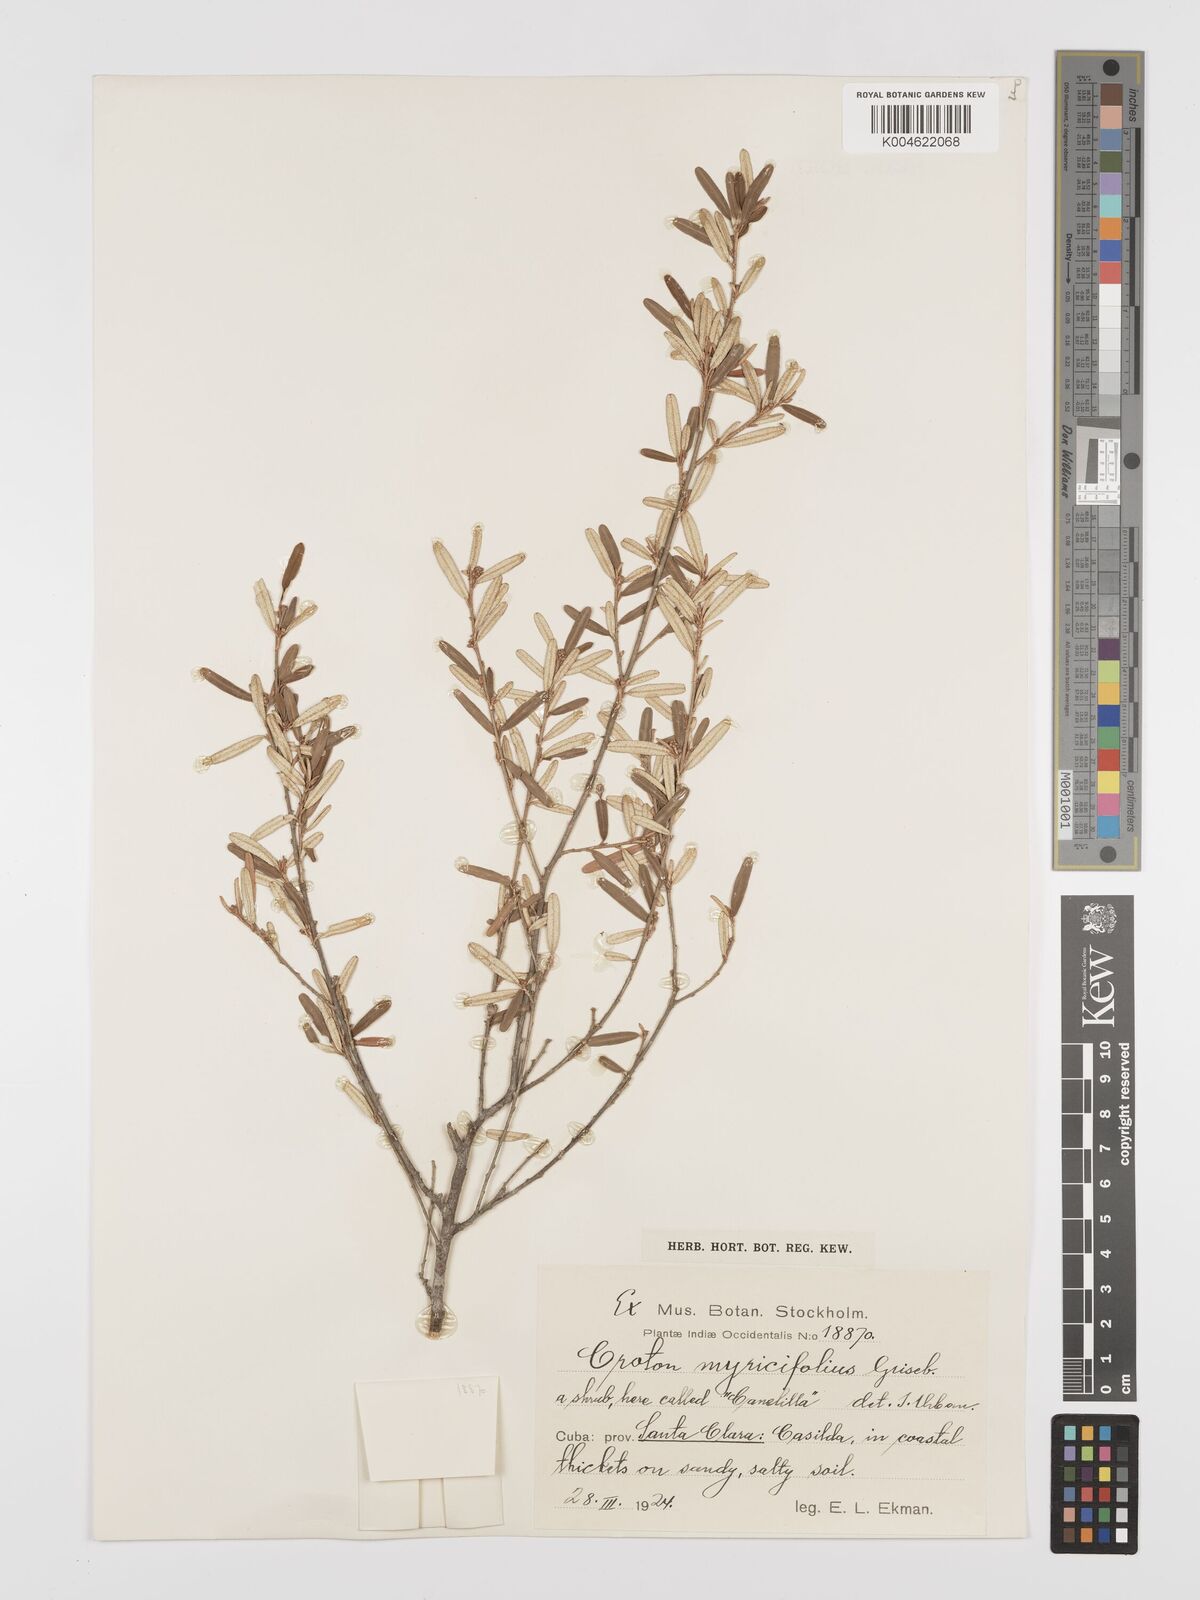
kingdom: Plantae
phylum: Tracheophyta
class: Magnoliopsida
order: Malpighiales
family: Euphorbiaceae
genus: Croton
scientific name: Croton myricifolius
